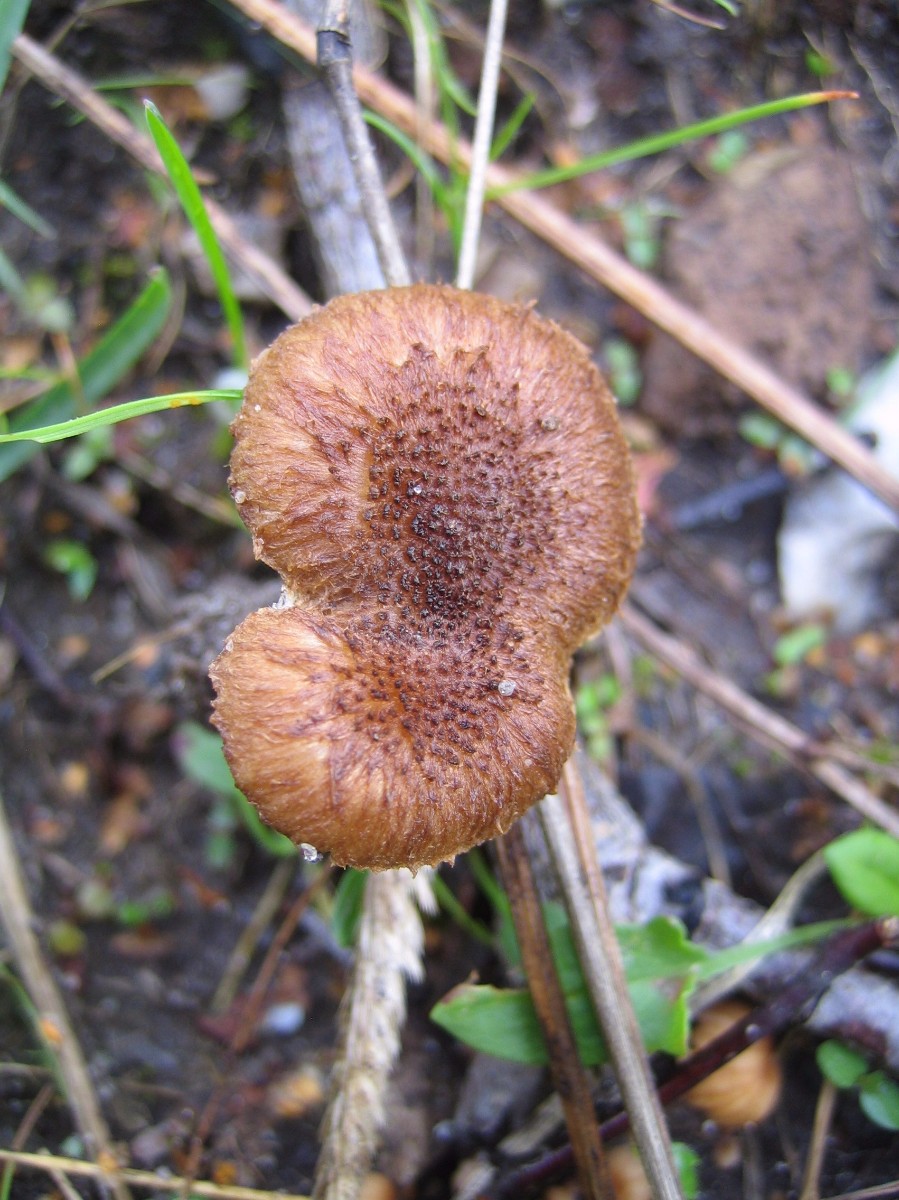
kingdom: Fungi
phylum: Basidiomycota
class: Agaricomycetes
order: Agaricales
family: Inocybaceae
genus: Inocybe
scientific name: Inocybe
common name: trævlhat
